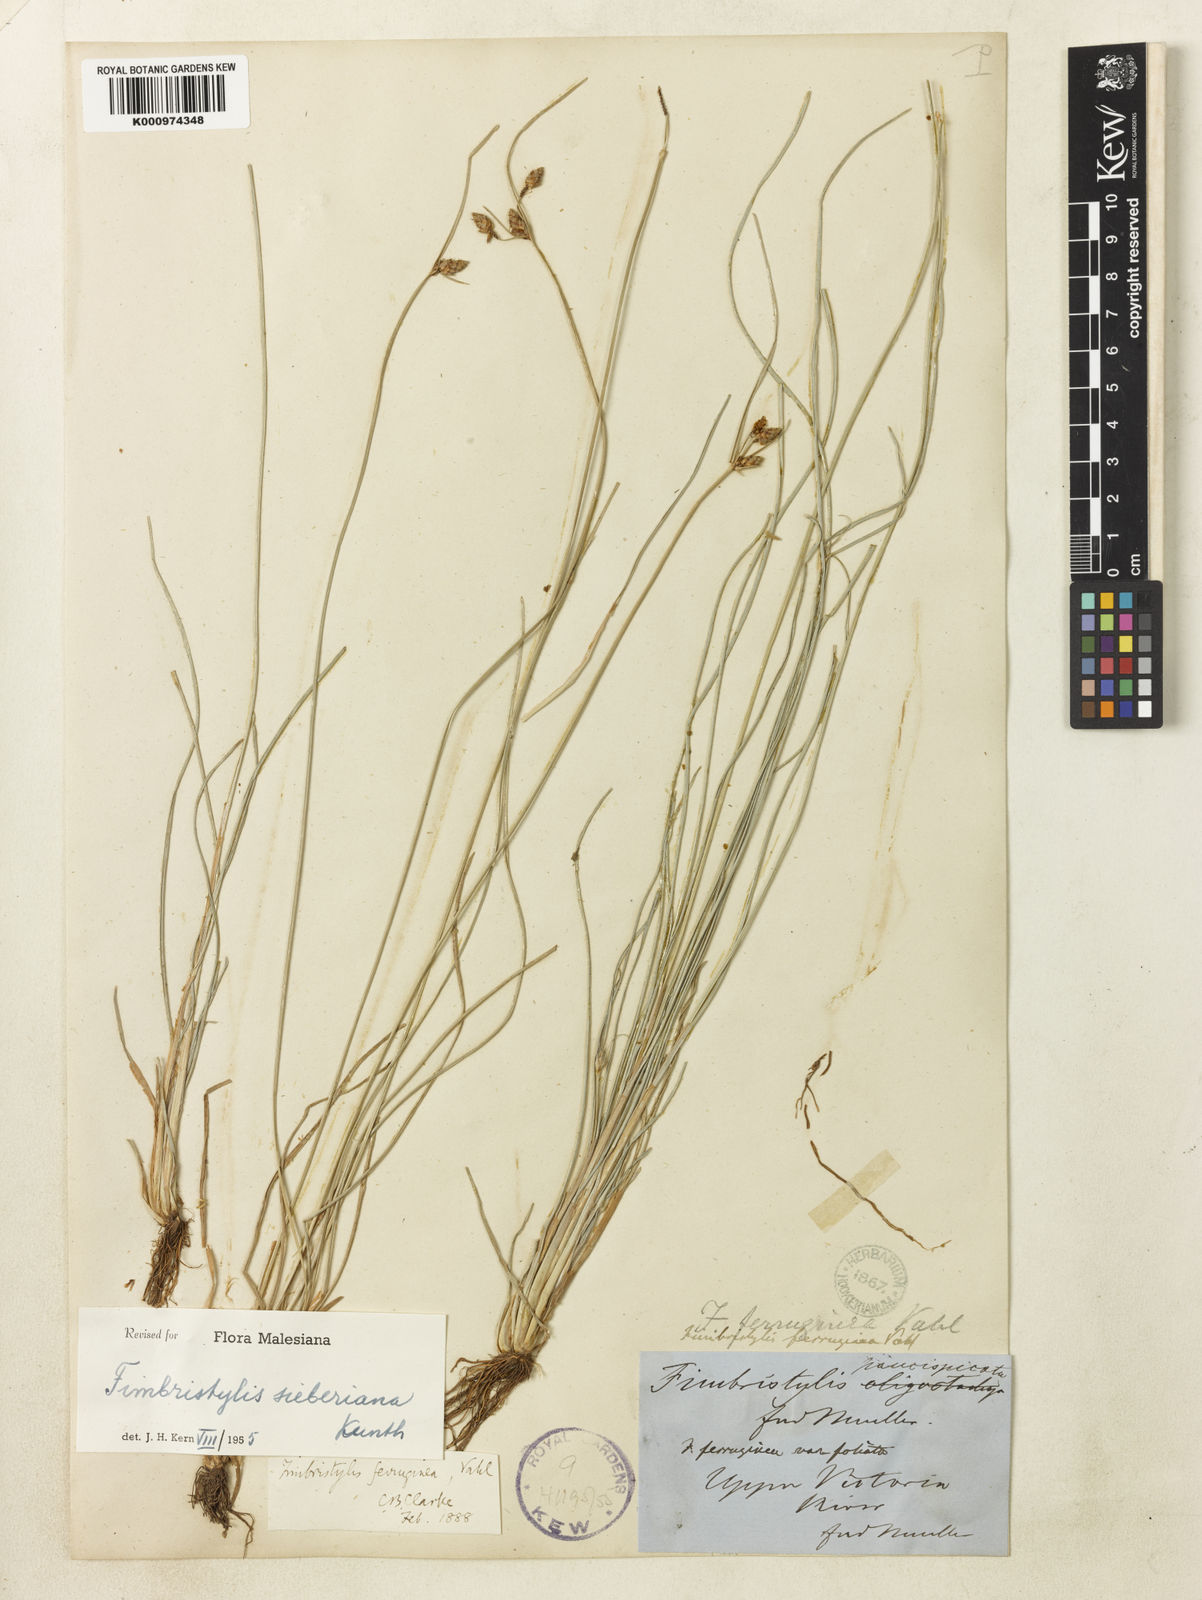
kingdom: Plantae
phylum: Tracheophyta
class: Liliopsida
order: Poales
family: Cyperaceae
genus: Fimbristylis
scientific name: Fimbristylis ferruginea
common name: West indian fimbry
